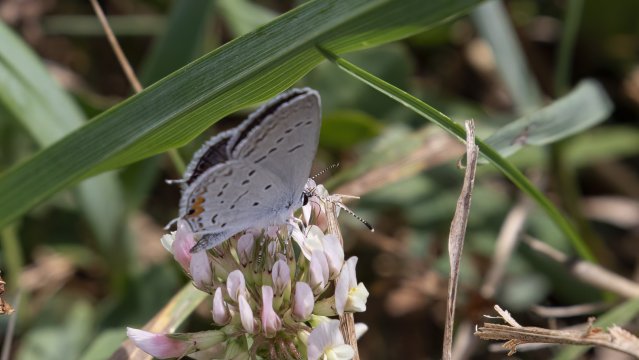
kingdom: Animalia
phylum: Arthropoda
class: Insecta
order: Lepidoptera
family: Lycaenidae
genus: Elkalyce
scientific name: Elkalyce comyntas
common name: Eastern Tailed-Blue
